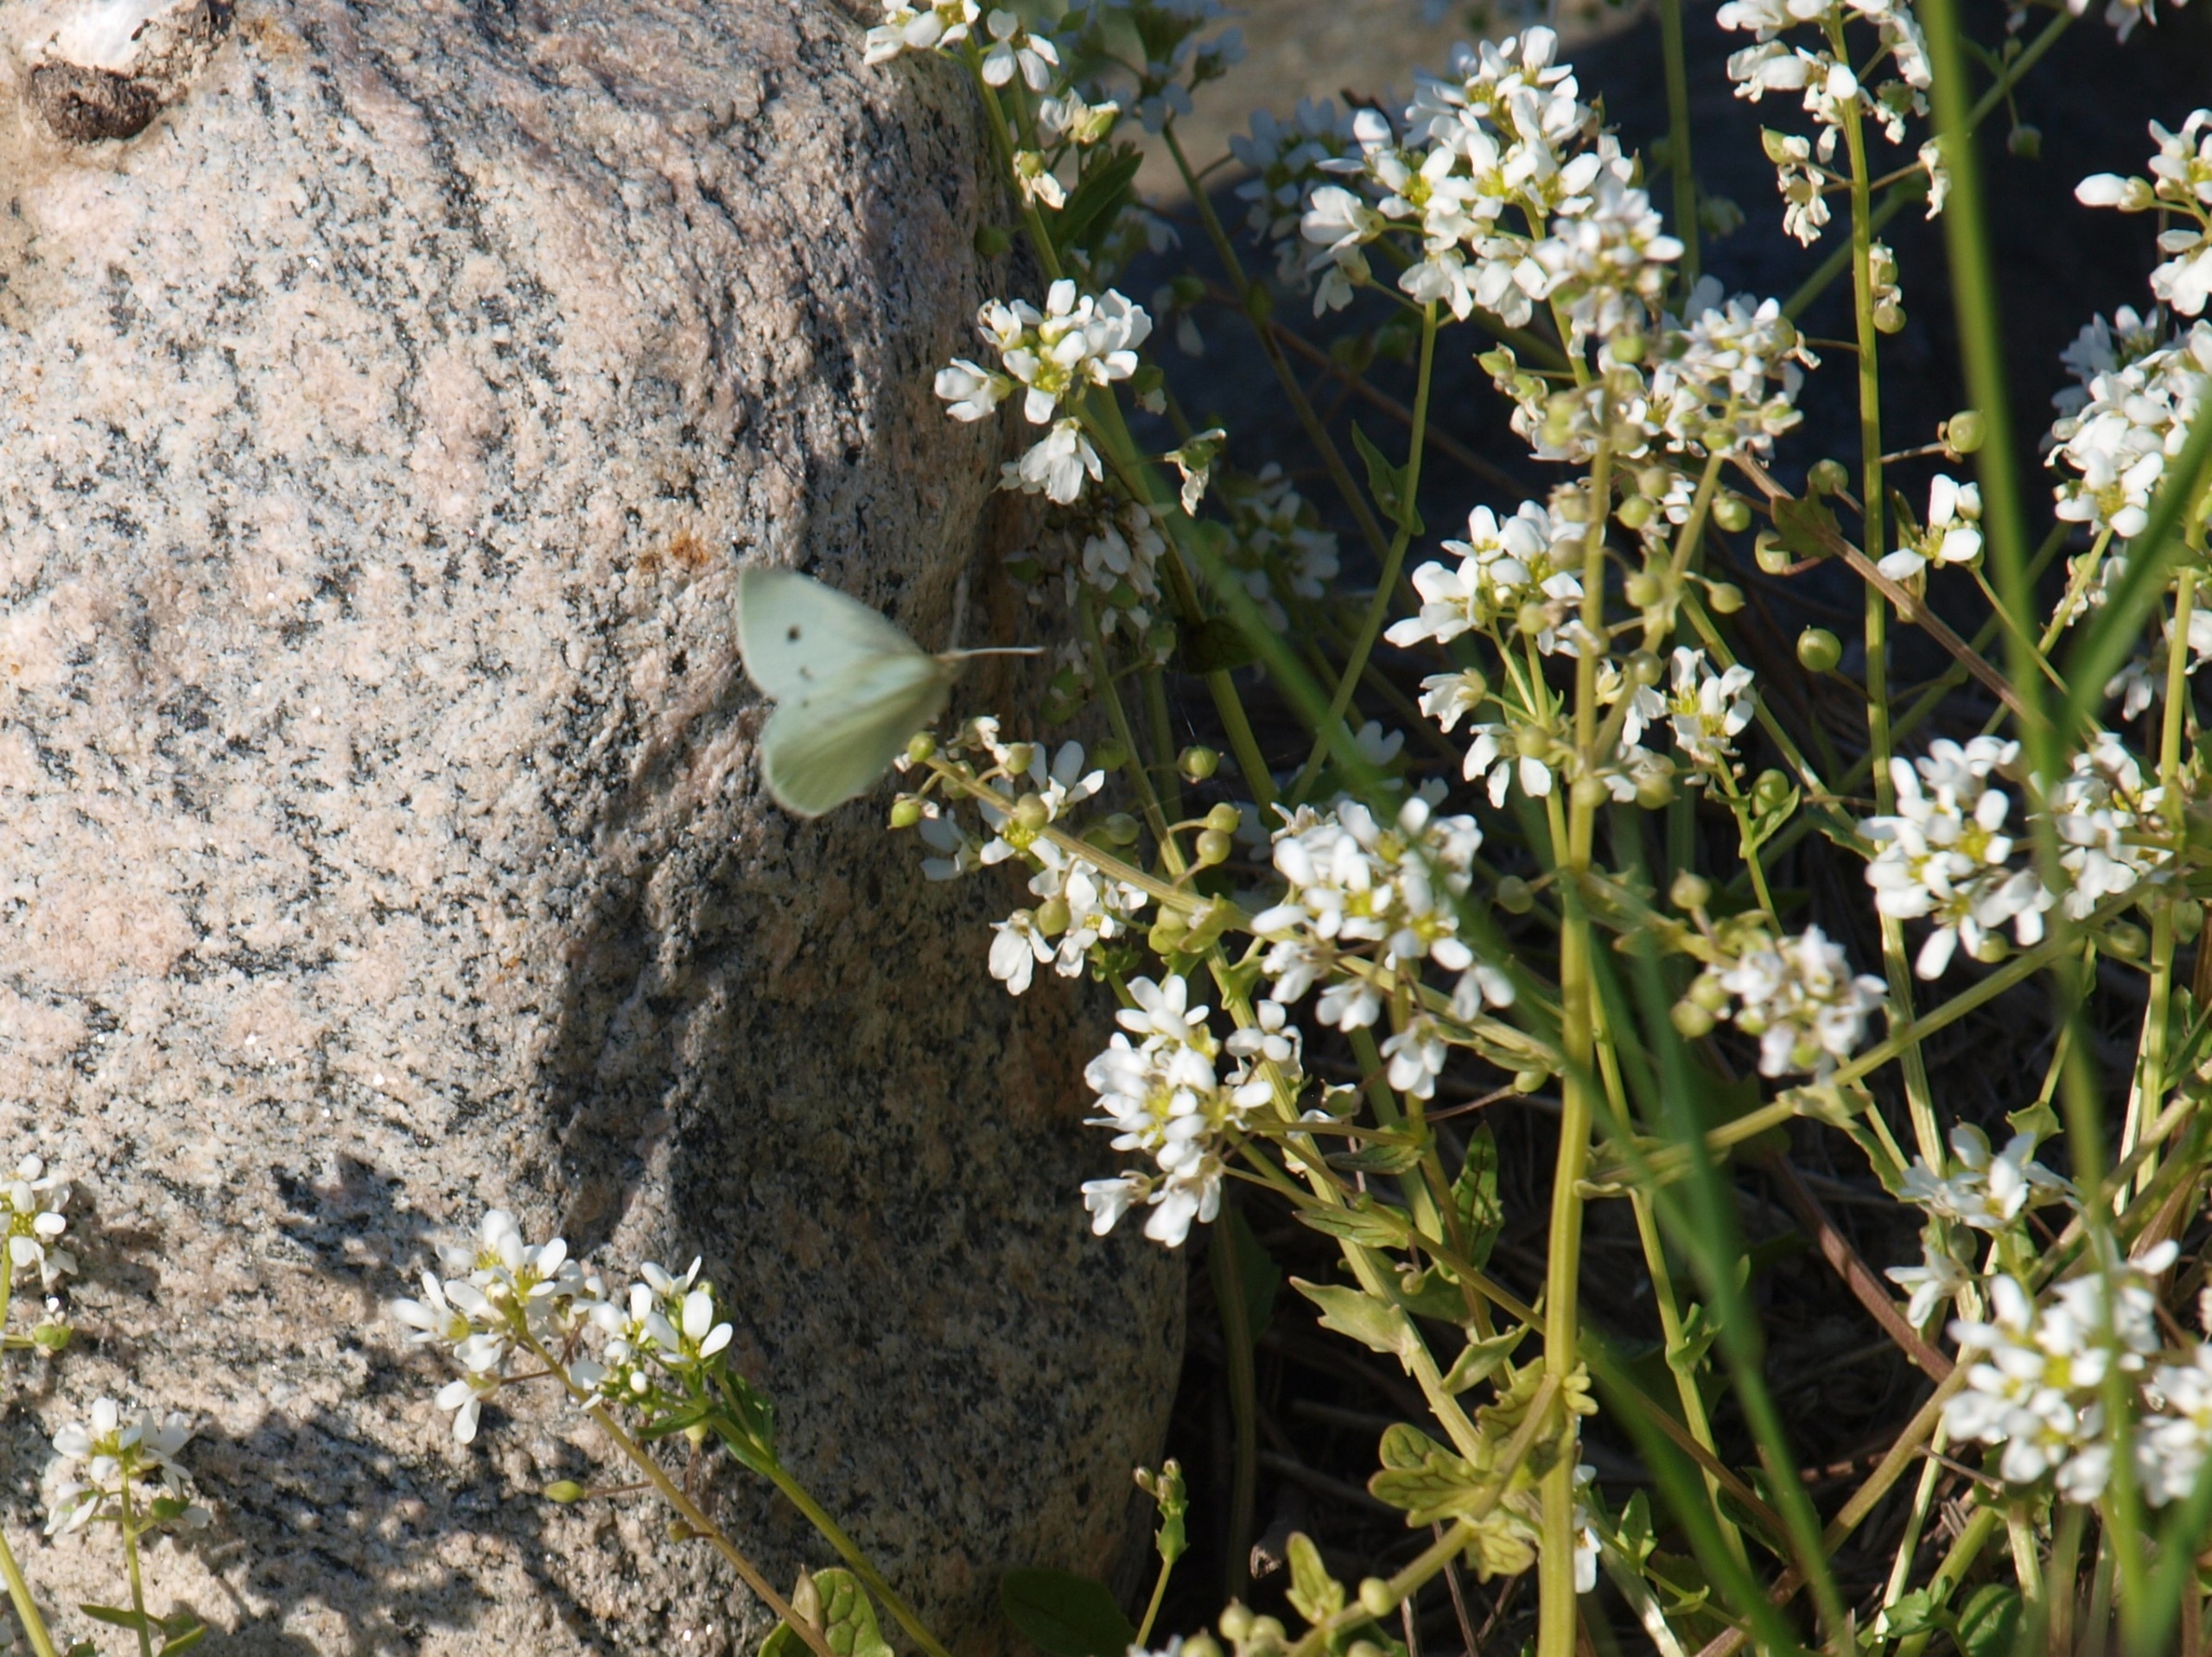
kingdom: Animalia
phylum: Arthropoda
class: Insecta
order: Lepidoptera
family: Pieridae
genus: Pieris
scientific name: Pieris napi
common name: Grønåret kålsommerfugl
